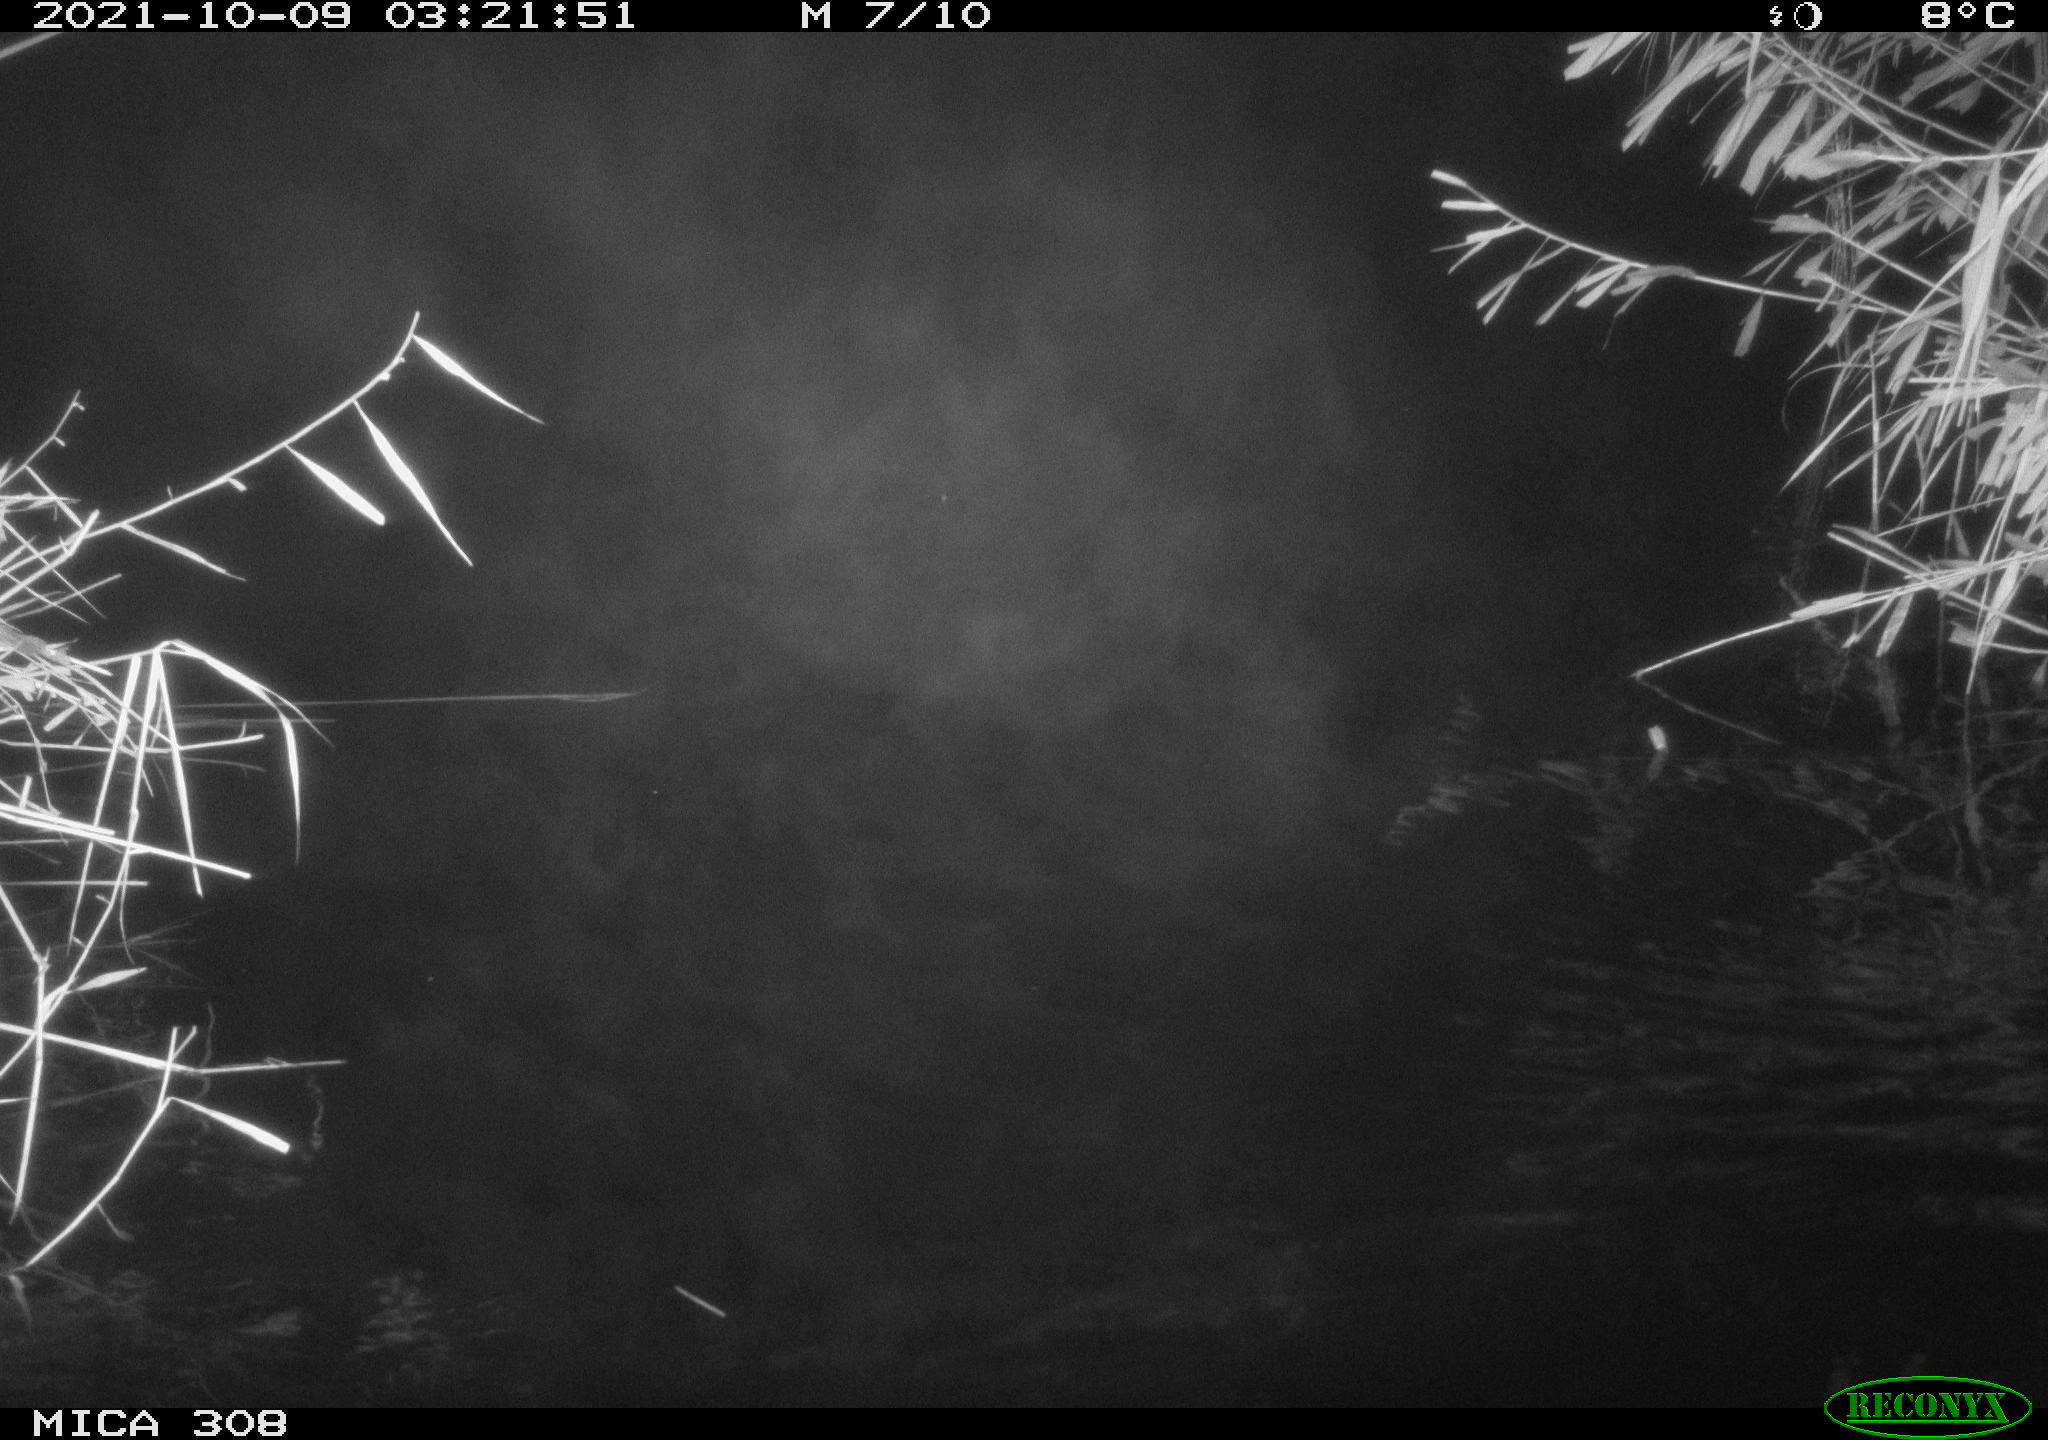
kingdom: Animalia
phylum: Chordata
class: Mammalia
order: Rodentia
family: Cricetidae
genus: Ondatra
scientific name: Ondatra zibethicus
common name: Muskrat
